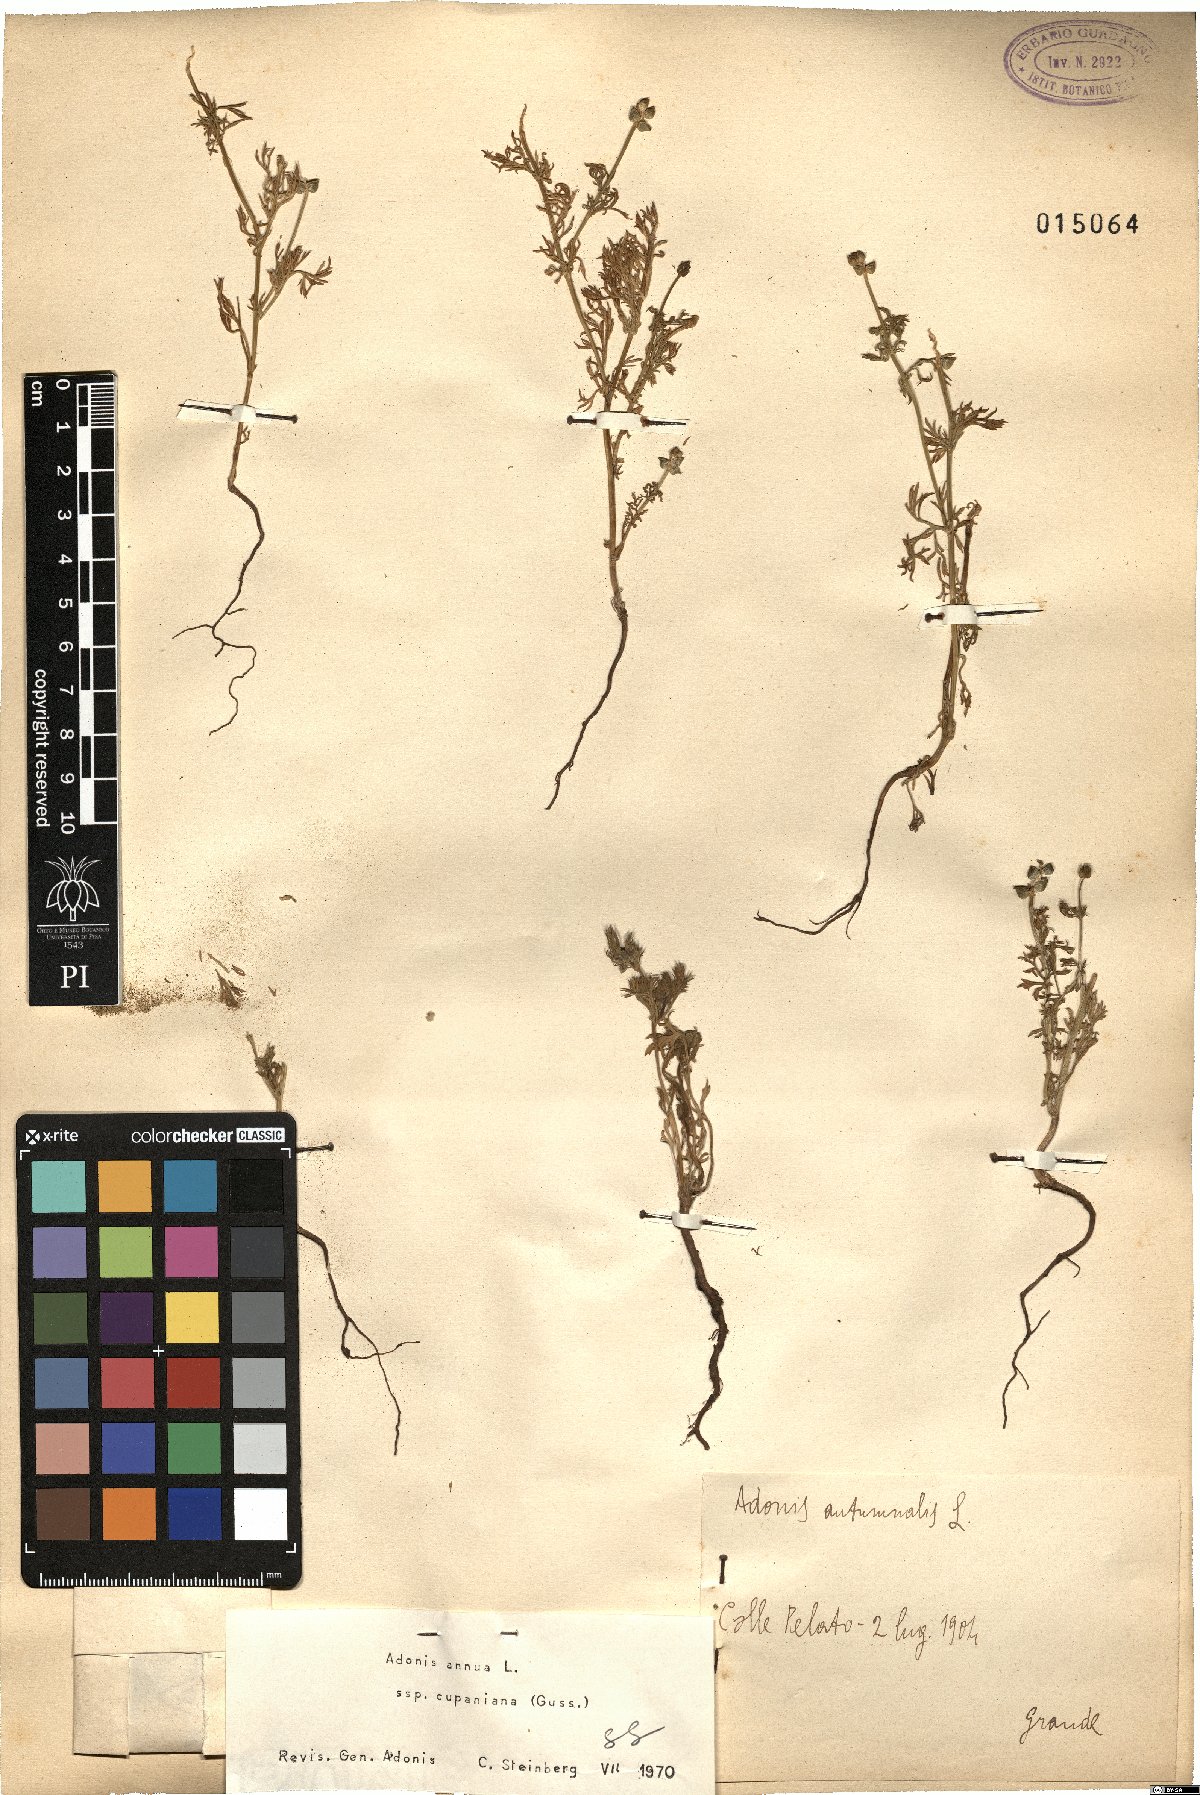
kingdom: Plantae
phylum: Tracheophyta
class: Magnoliopsida
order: Ranunculales
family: Ranunculaceae
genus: Adonis
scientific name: Adonis annua
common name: Pheasant's-eye
